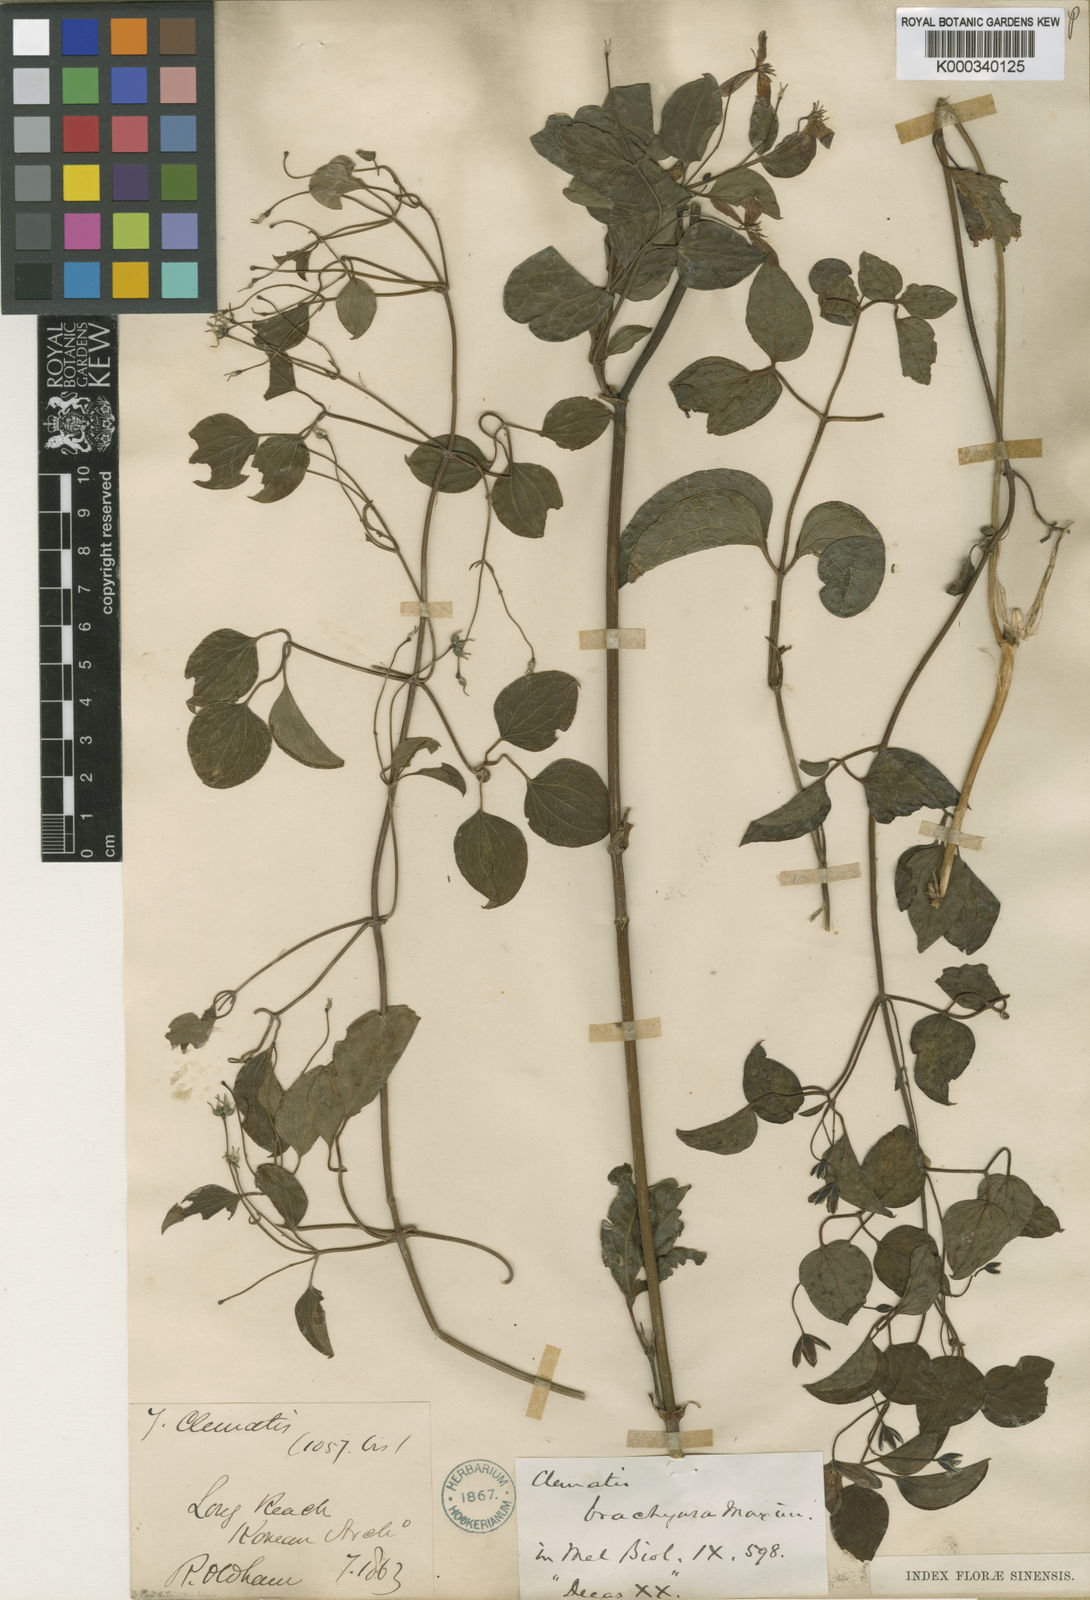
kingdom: Plantae
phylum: Tracheophyta
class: Magnoliopsida
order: Ranunculales
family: Ranunculaceae
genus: Clematis
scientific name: Clematis brachyura
